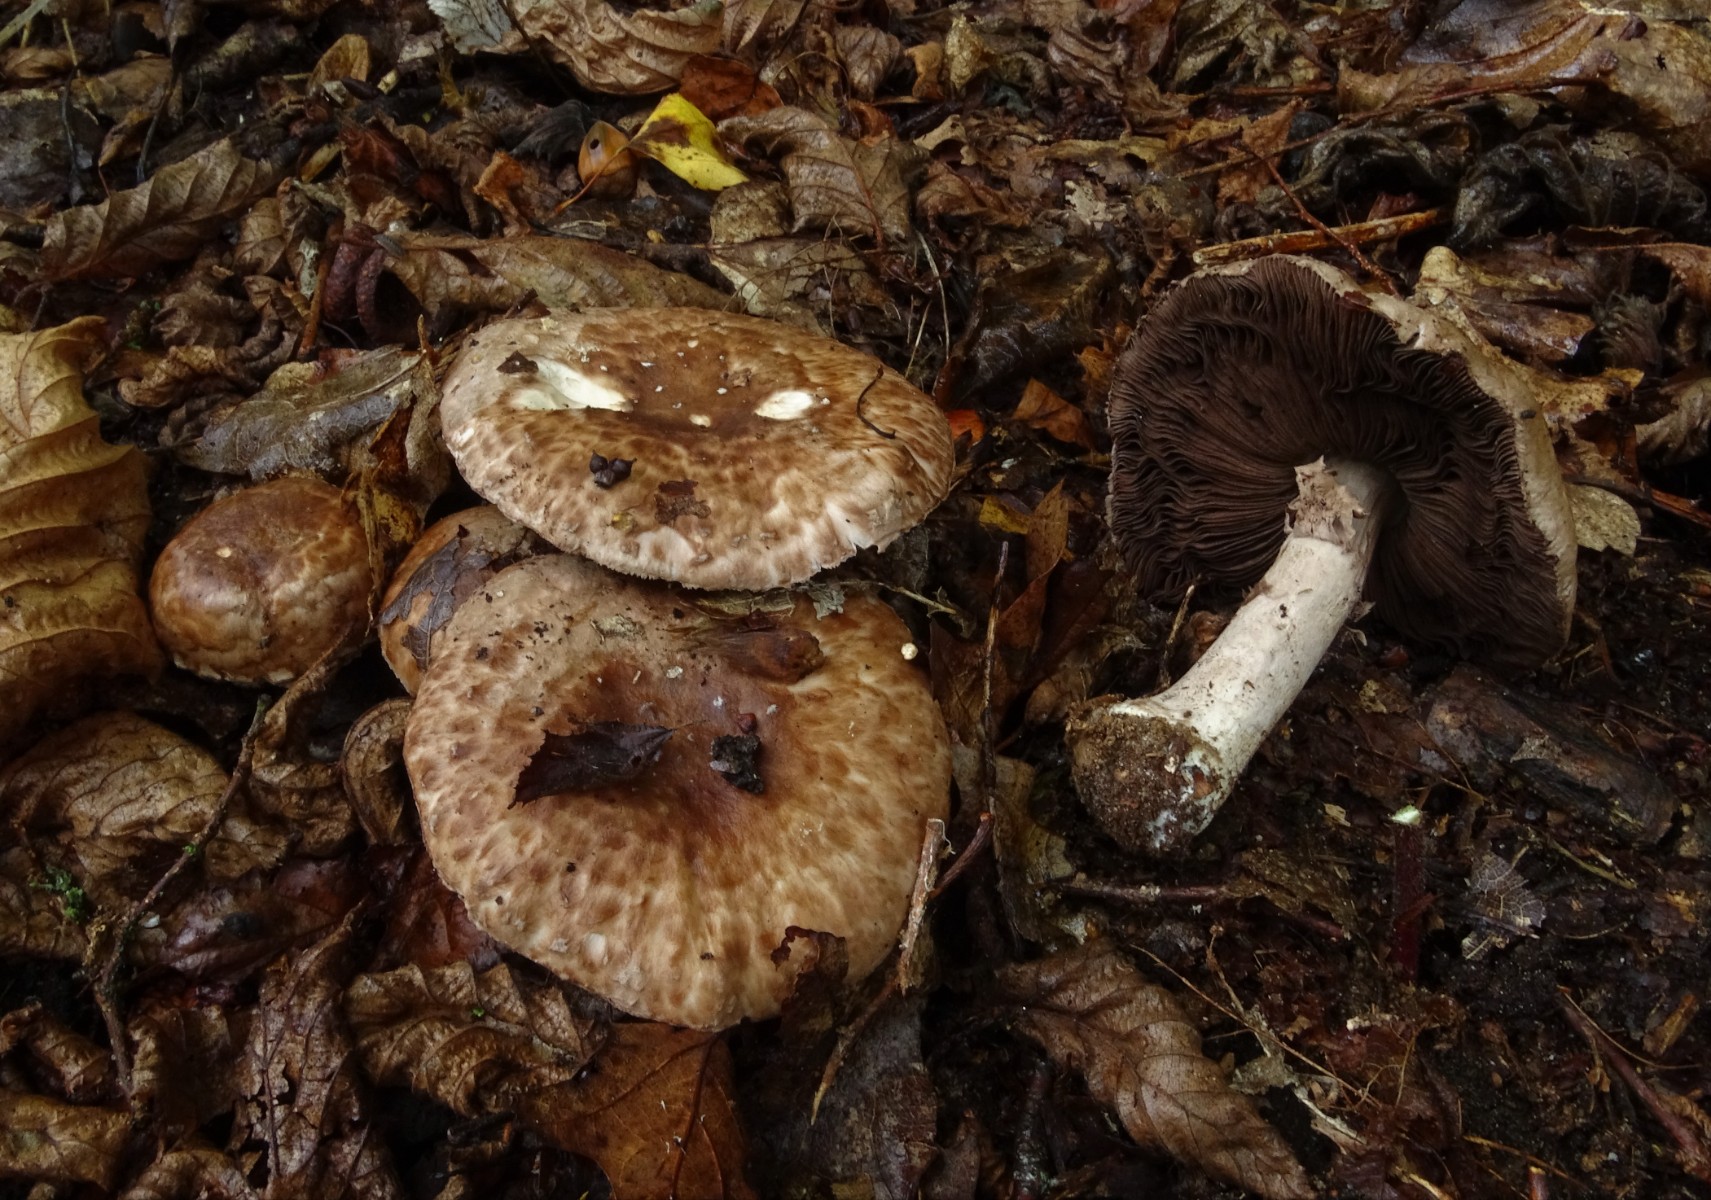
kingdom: Fungi
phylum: Basidiomycota
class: Agaricomycetes
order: Agaricales
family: Agaricaceae
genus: Agaricus
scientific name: Agaricus sylvaticus
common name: lille blod-champignon
